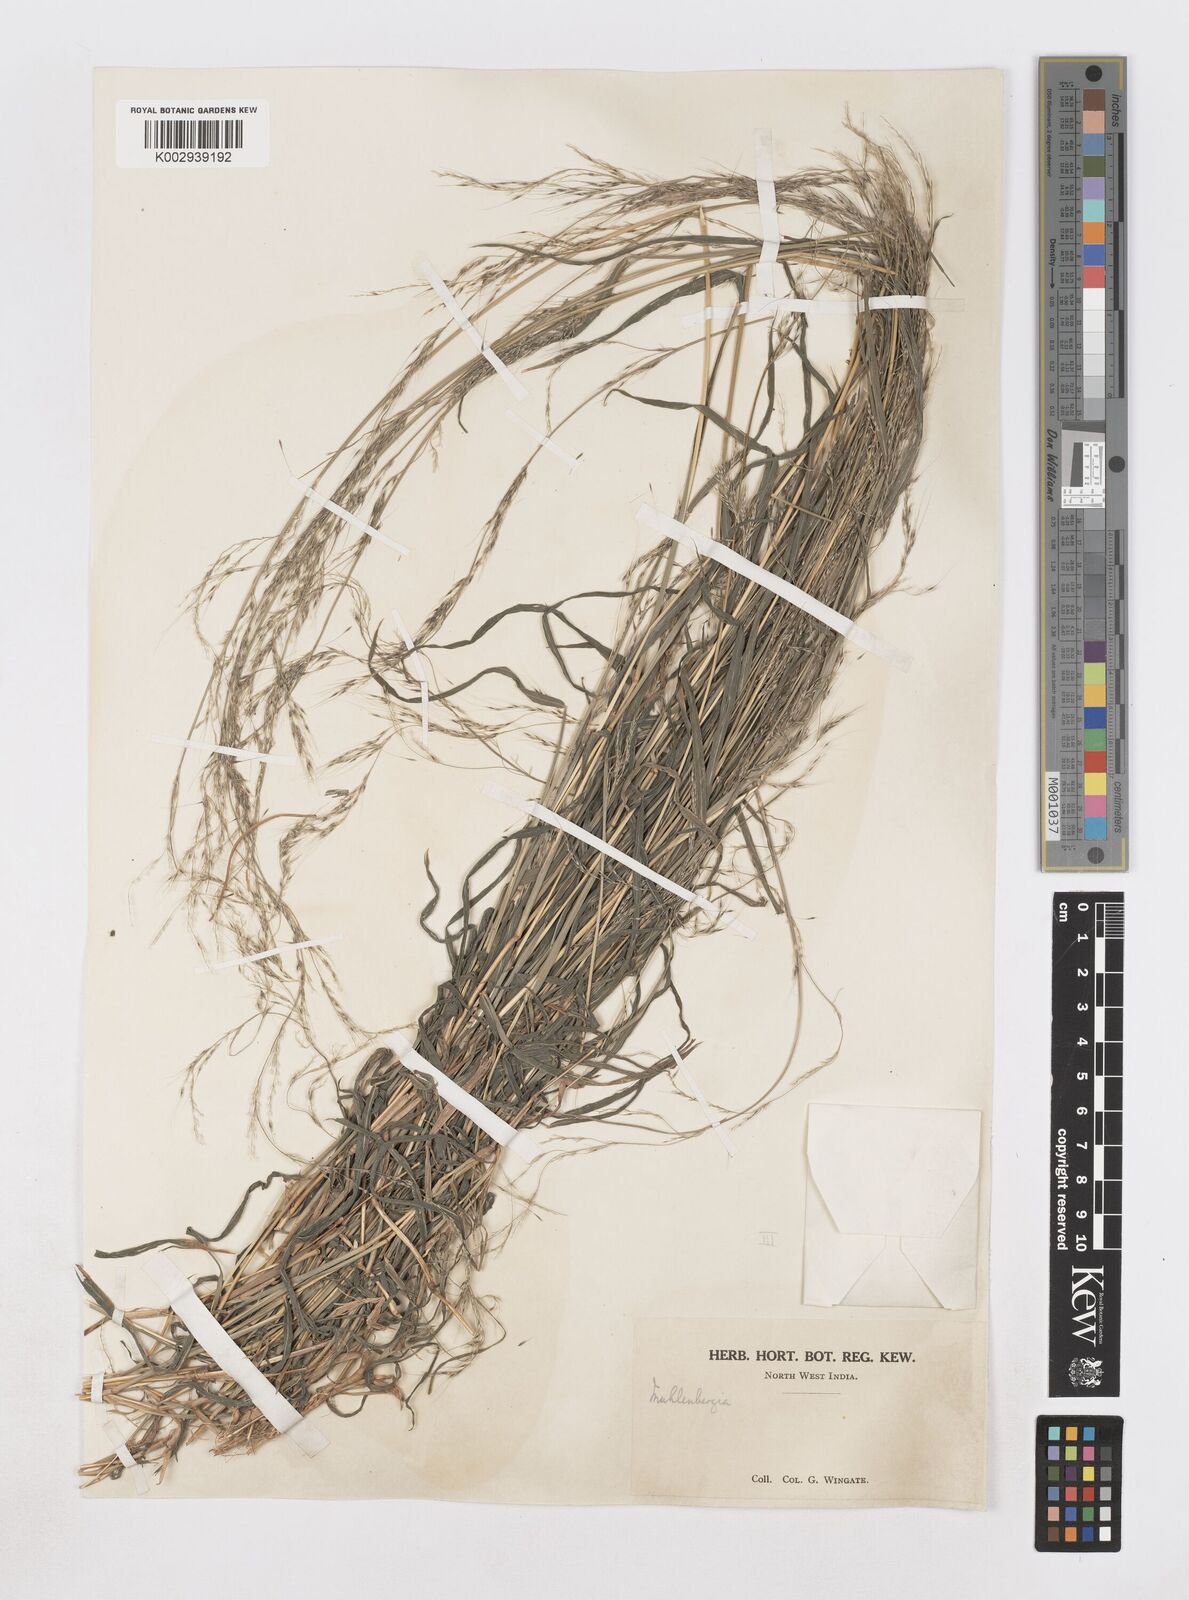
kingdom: Plantae
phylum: Tracheophyta
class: Liliopsida
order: Poales
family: Poaceae
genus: Muhlenbergia
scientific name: Muhlenbergia huegelii
